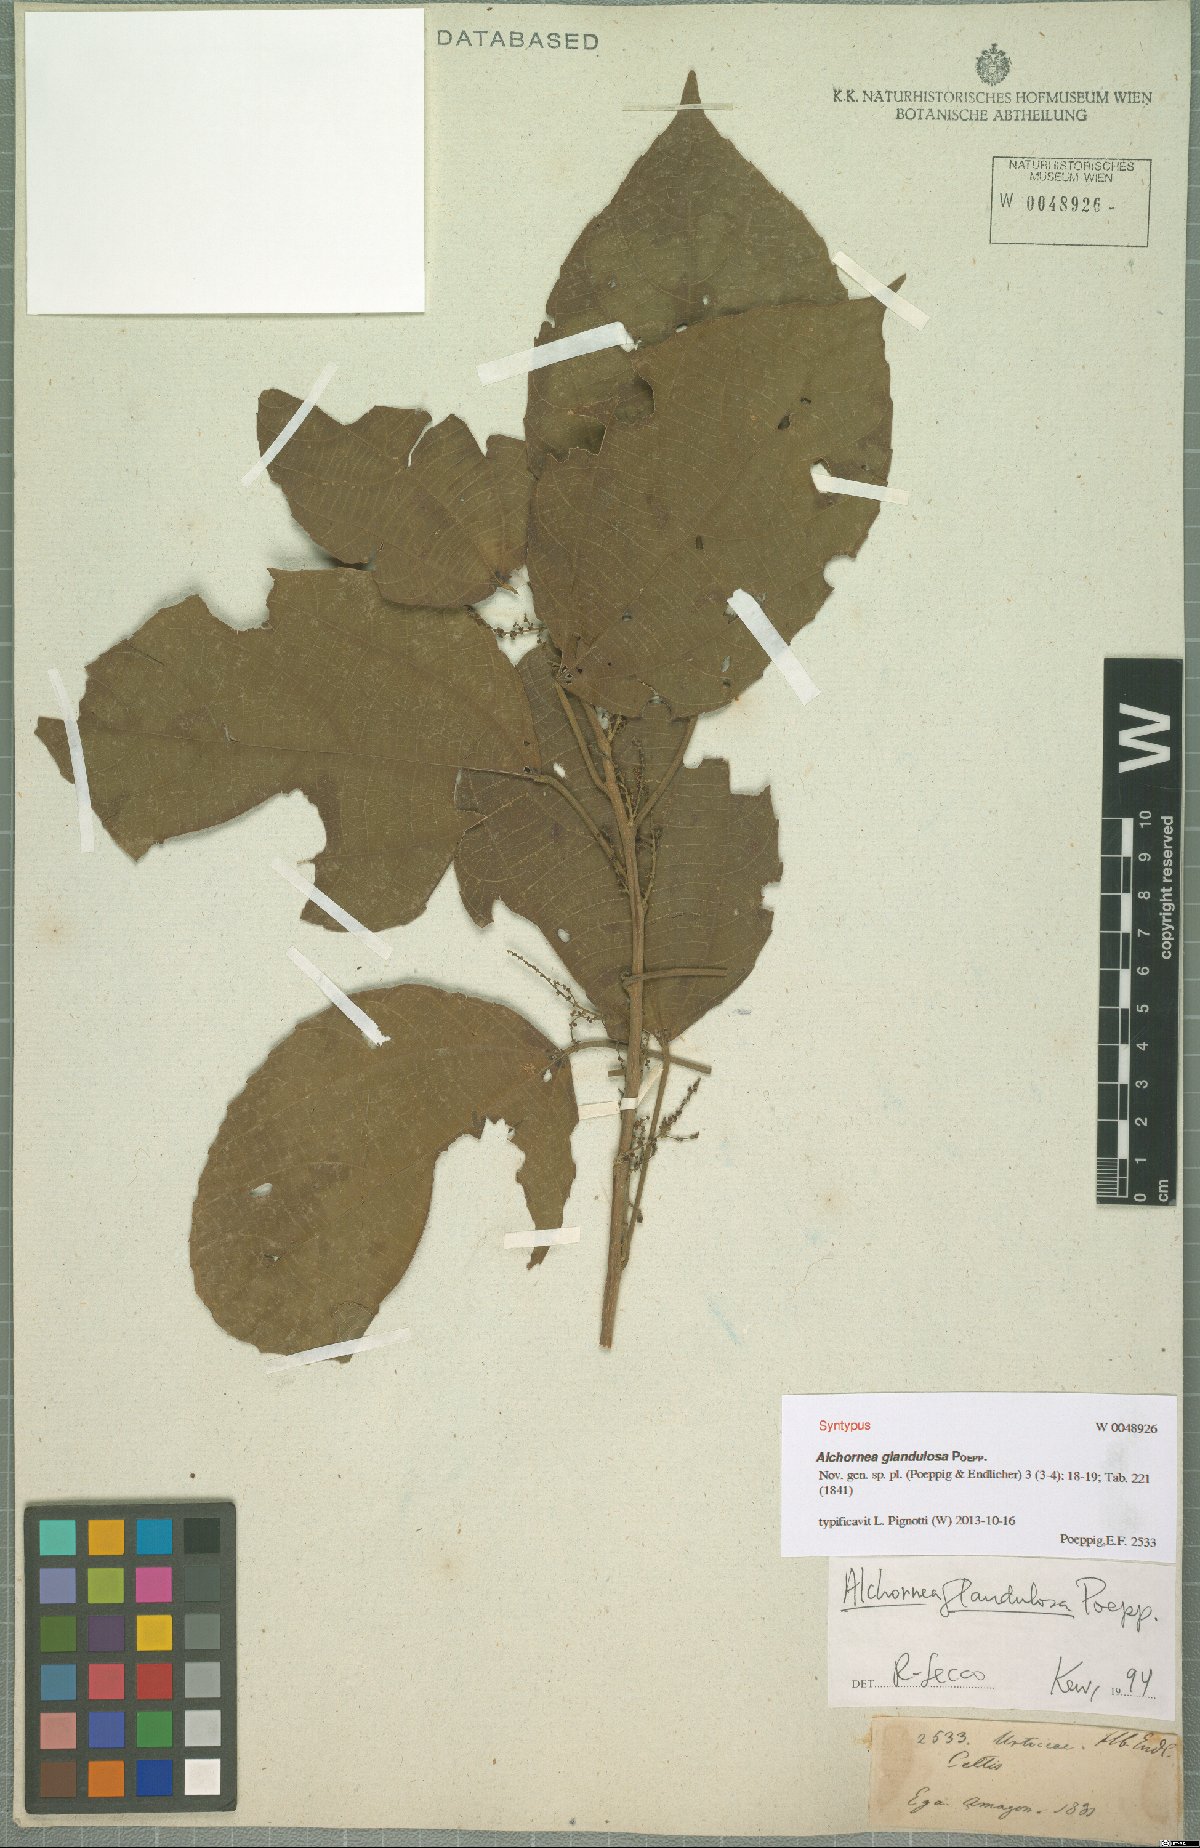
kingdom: Plantae
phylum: Tracheophyta
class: Magnoliopsida
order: Malpighiales
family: Euphorbiaceae
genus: Alchornea
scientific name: Alchornea glandulosa
